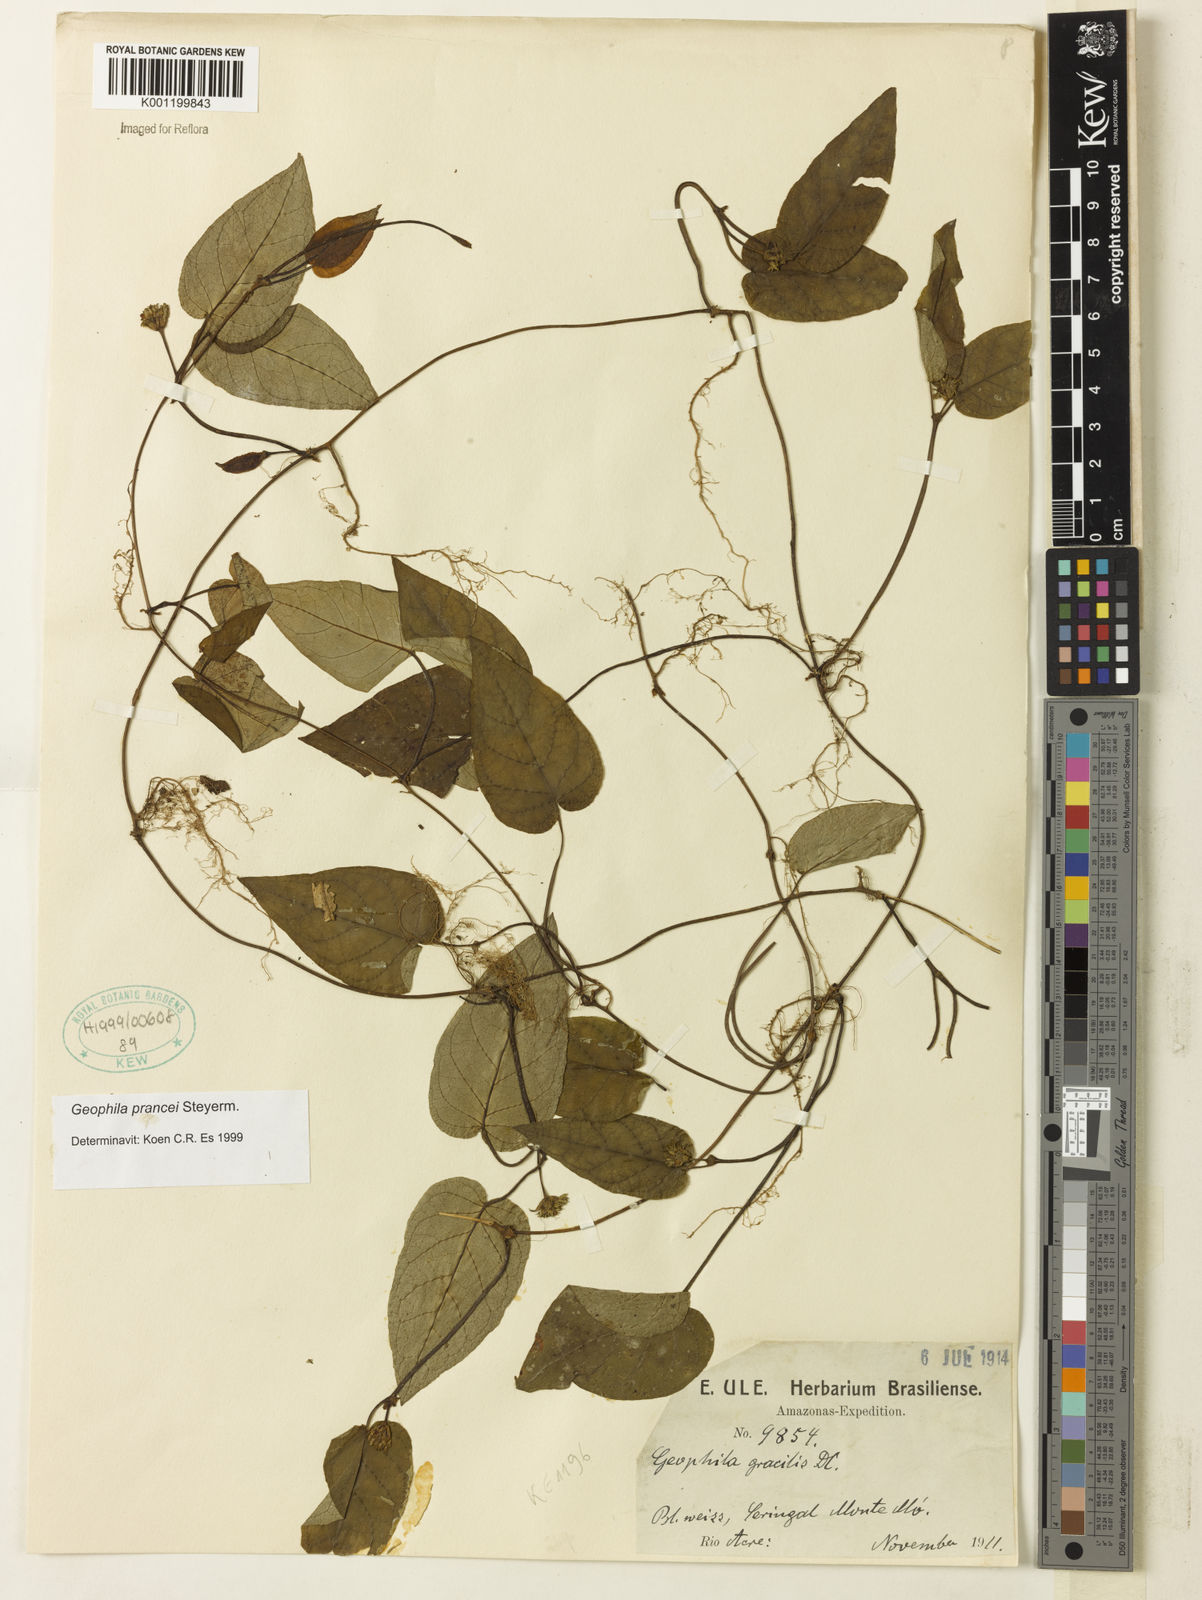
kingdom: Plantae
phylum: Tracheophyta
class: Magnoliopsida
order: Gentianales
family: Rubiaceae
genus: Geophila
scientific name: Geophila prancei
